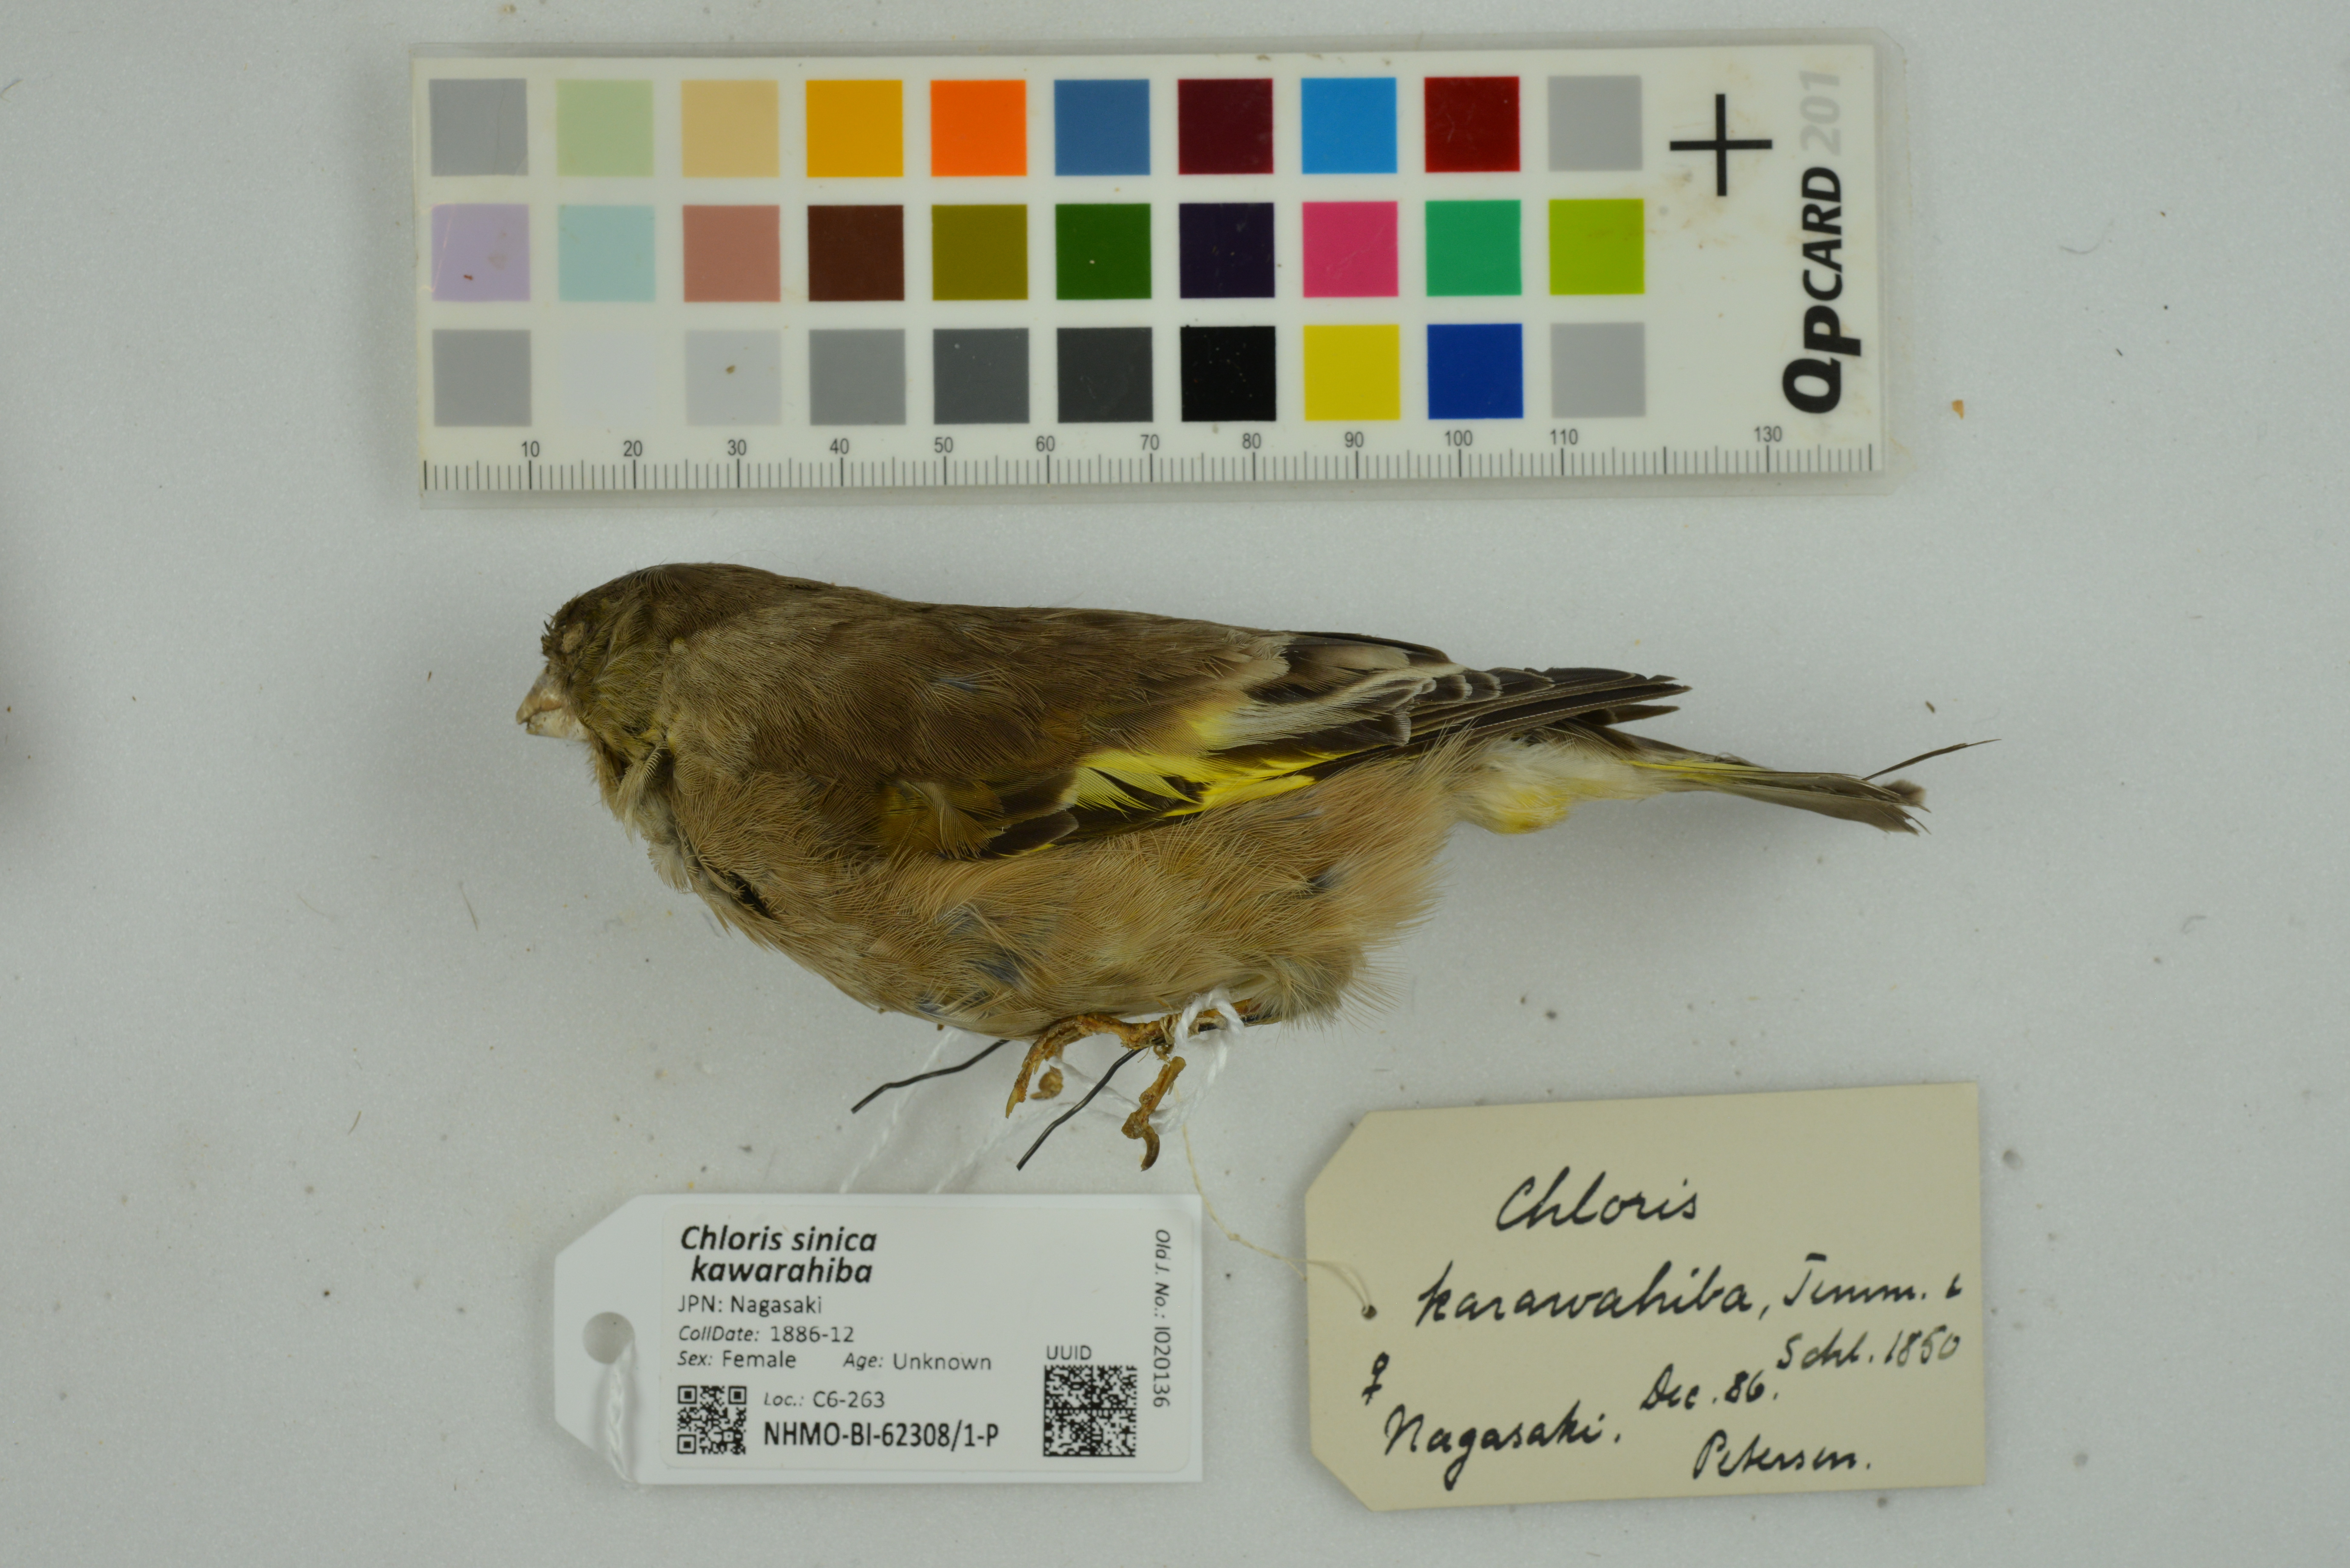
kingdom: Plantae
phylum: Tracheophyta
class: Liliopsida
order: Poales
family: Poaceae
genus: Chloris
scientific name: Chloris sinica
